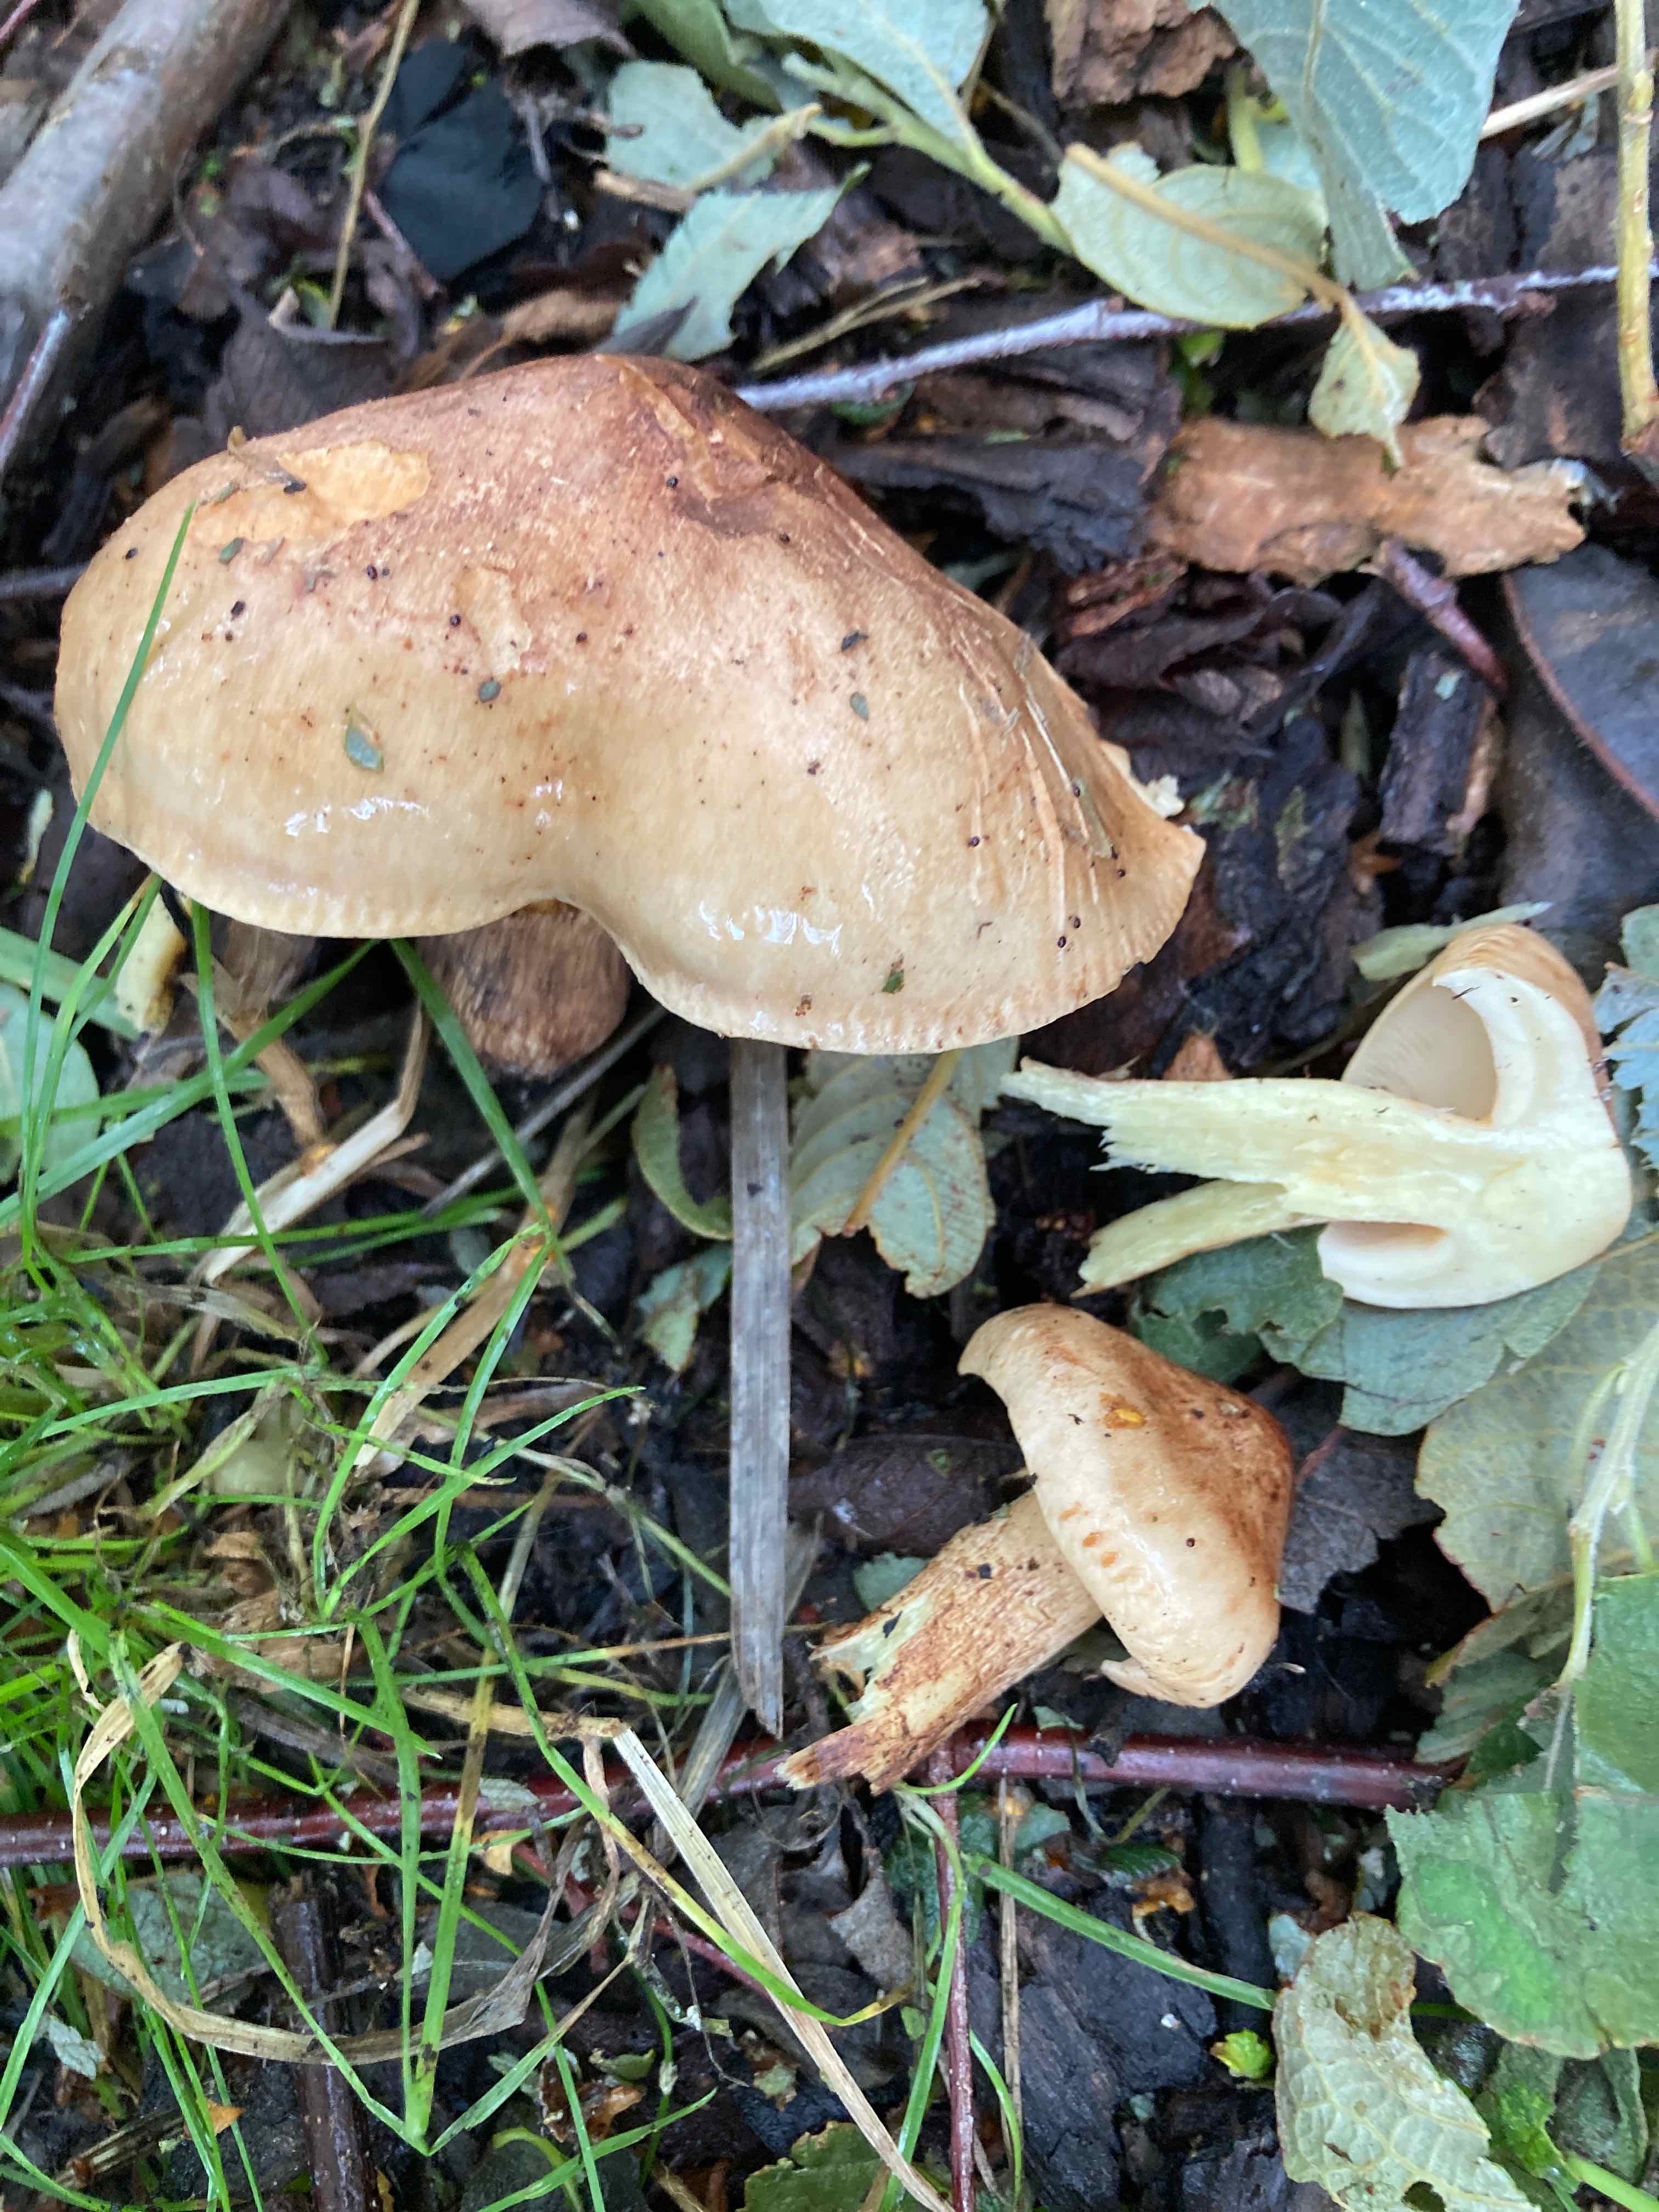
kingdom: Fungi
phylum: Basidiomycota
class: Agaricomycetes
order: Agaricales
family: Tricholomataceae
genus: Tricholoma
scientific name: Tricholoma fulvum
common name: birke-ridderhat
